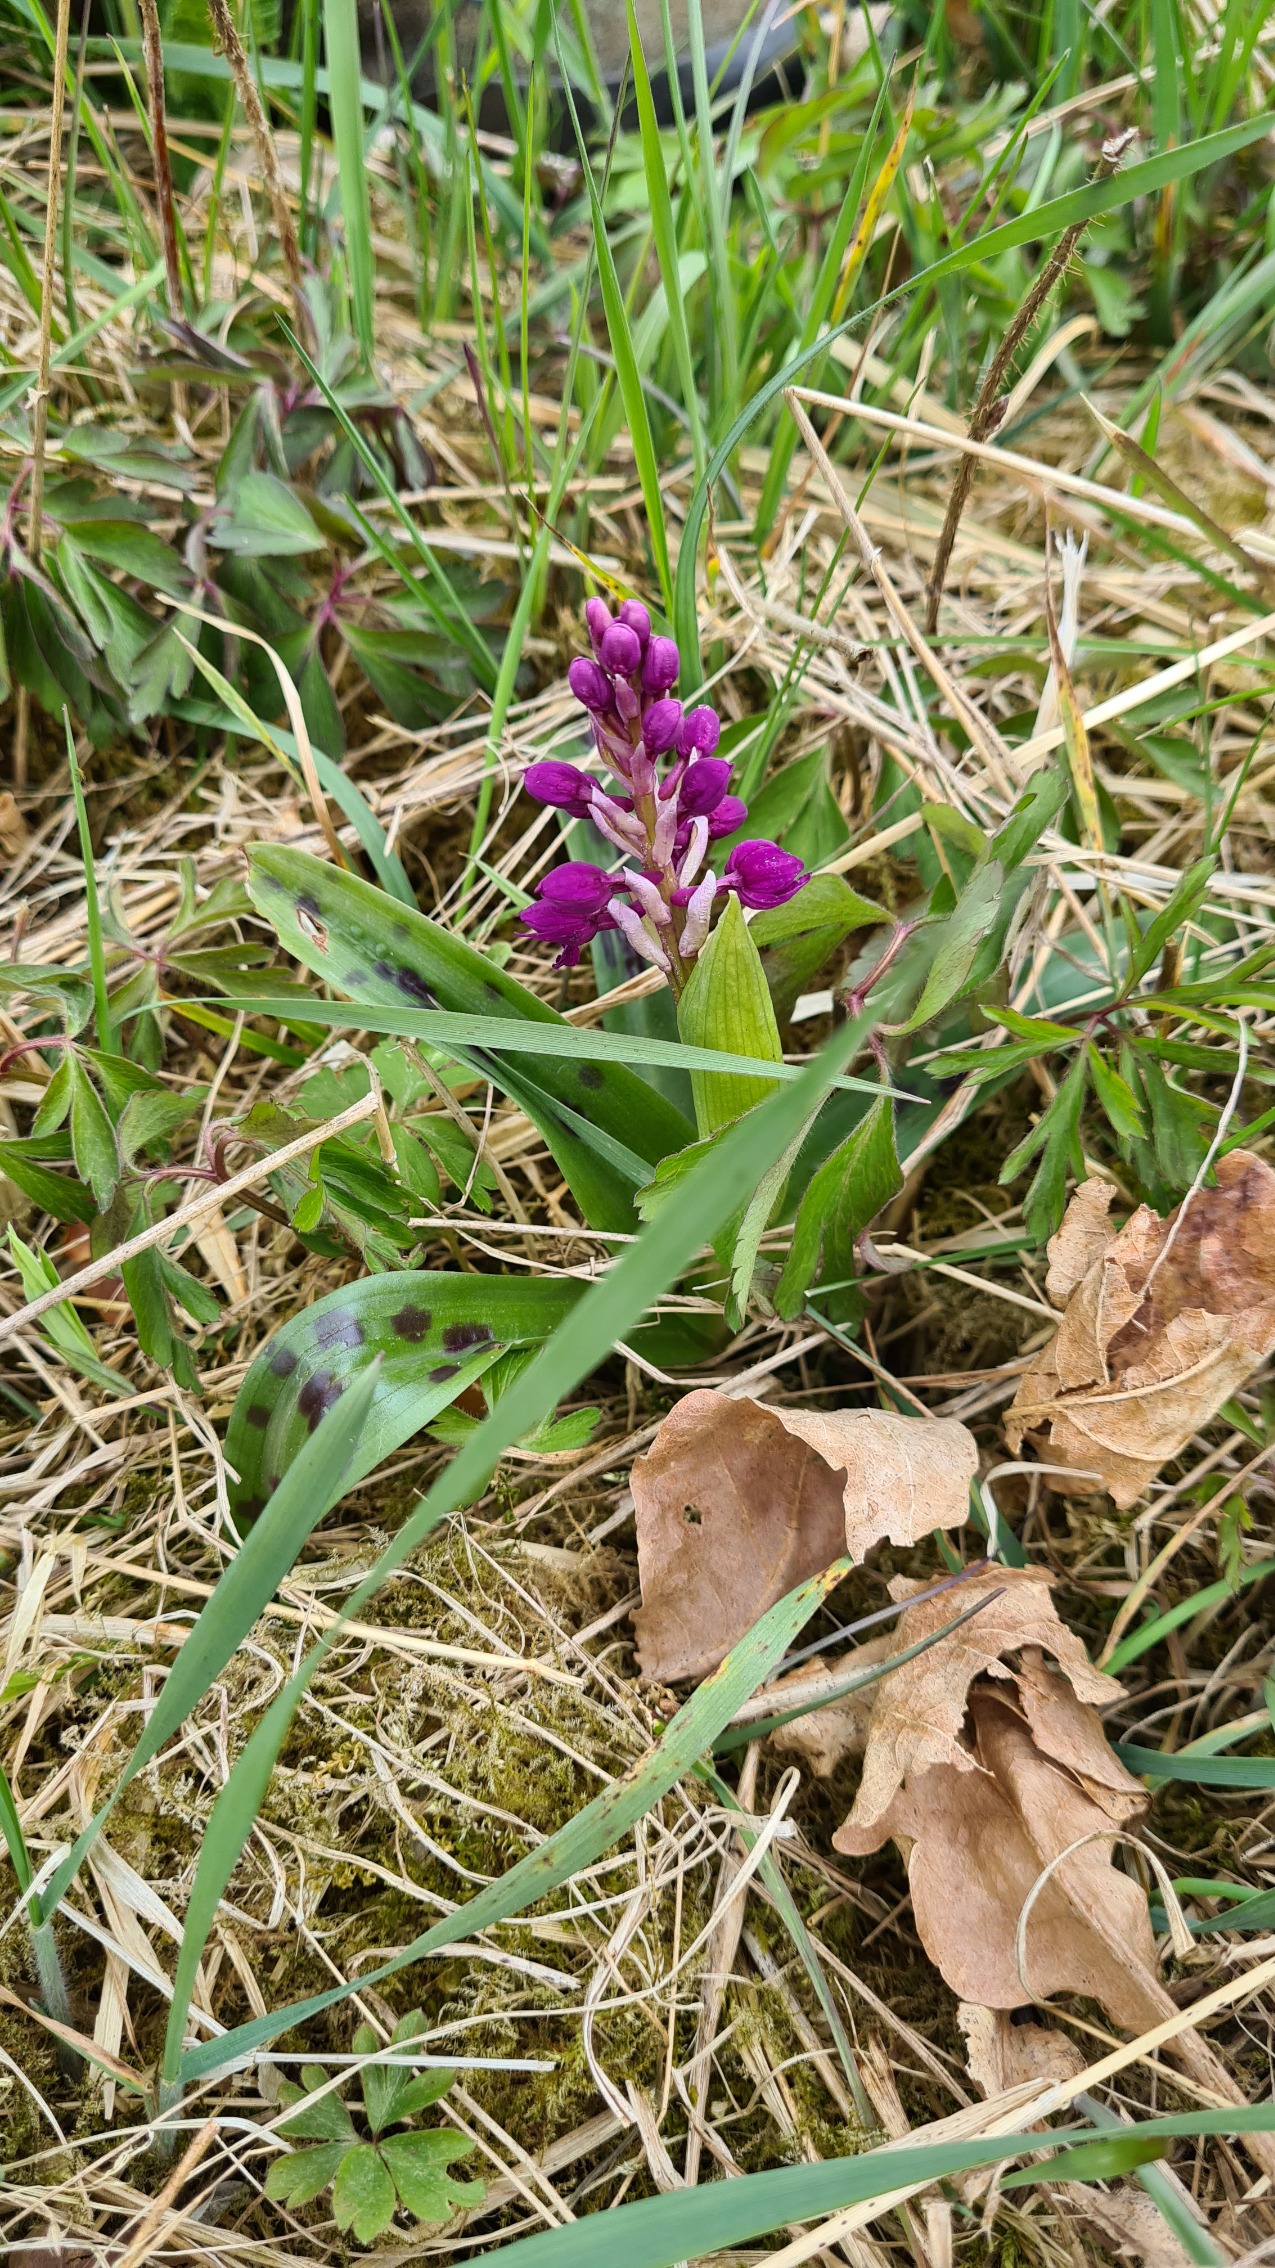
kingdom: Plantae
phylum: Tracheophyta
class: Liliopsida
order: Asparagales
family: Orchidaceae
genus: Orchis
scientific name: Orchis mascula
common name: Tyndakset gøgeurt
